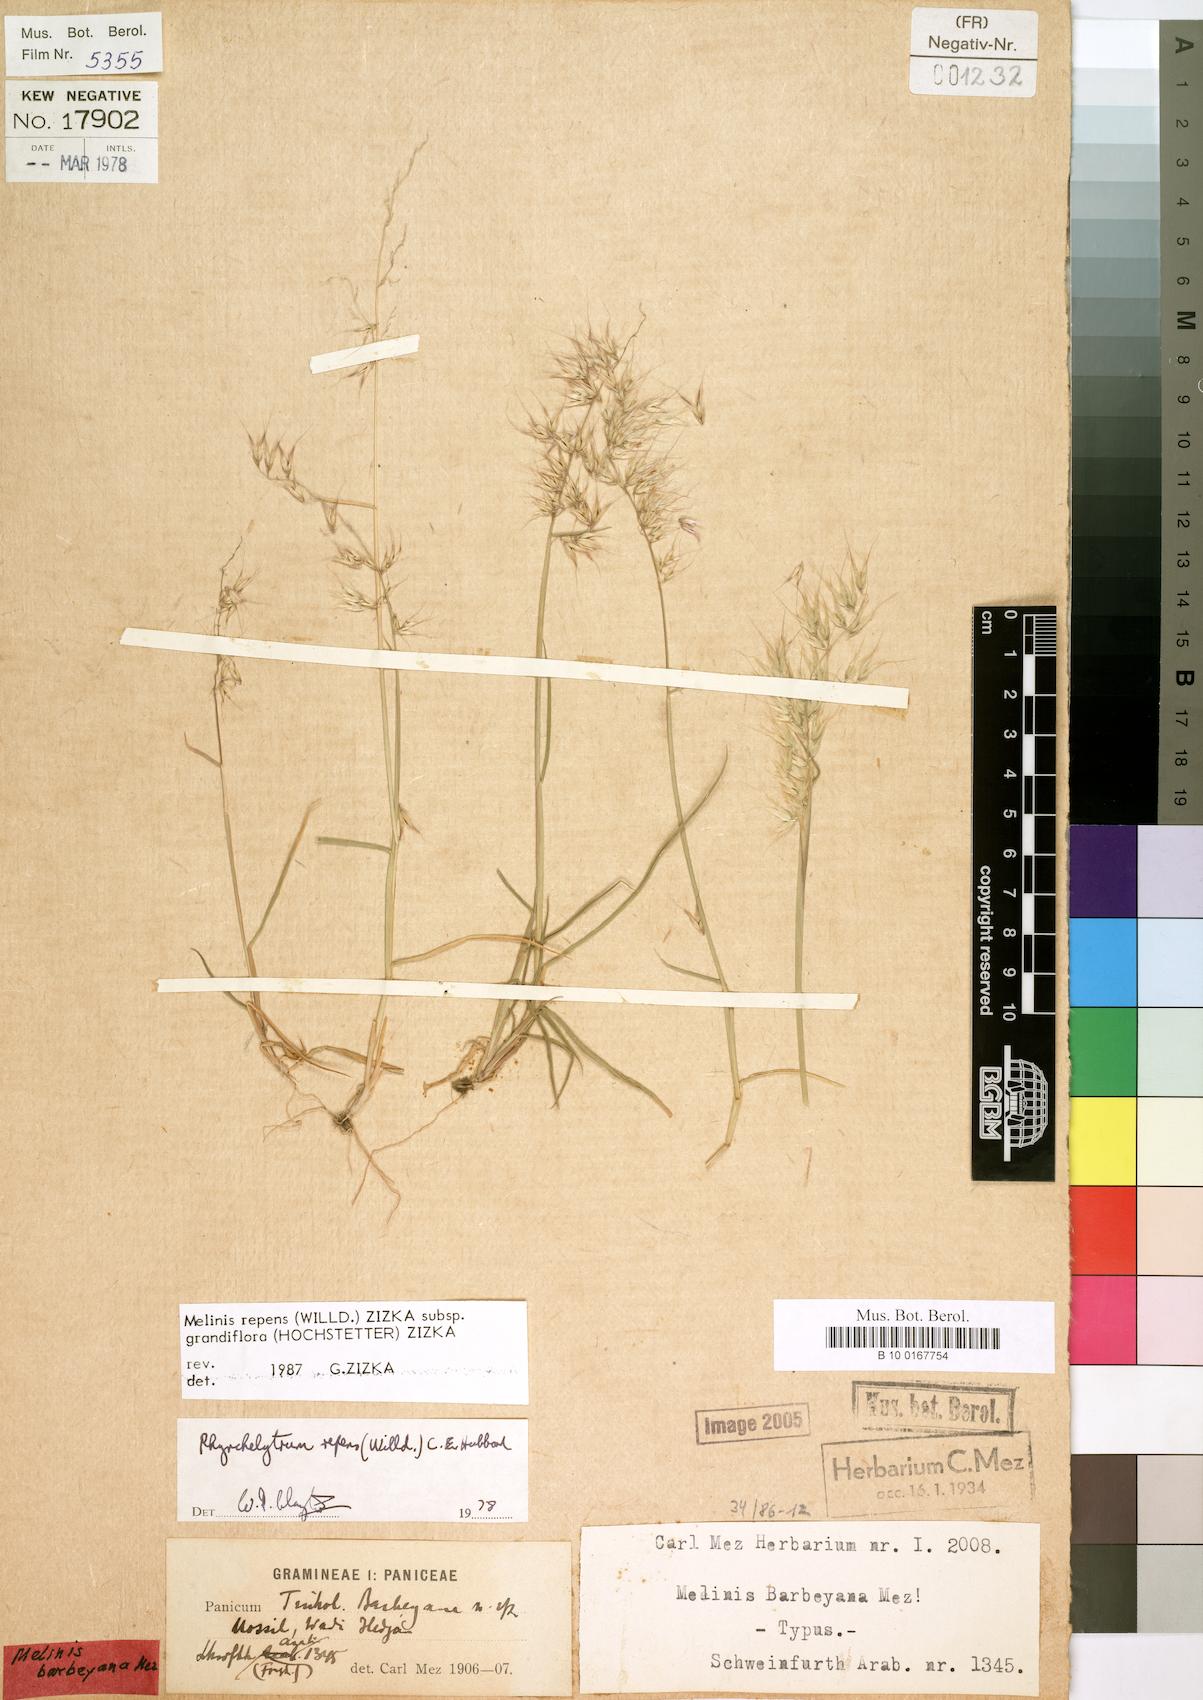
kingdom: Plantae
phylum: Tracheophyta
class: Liliopsida
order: Poales
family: Poaceae
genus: Melinis
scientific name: Melinis repens
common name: Rose natal grass
